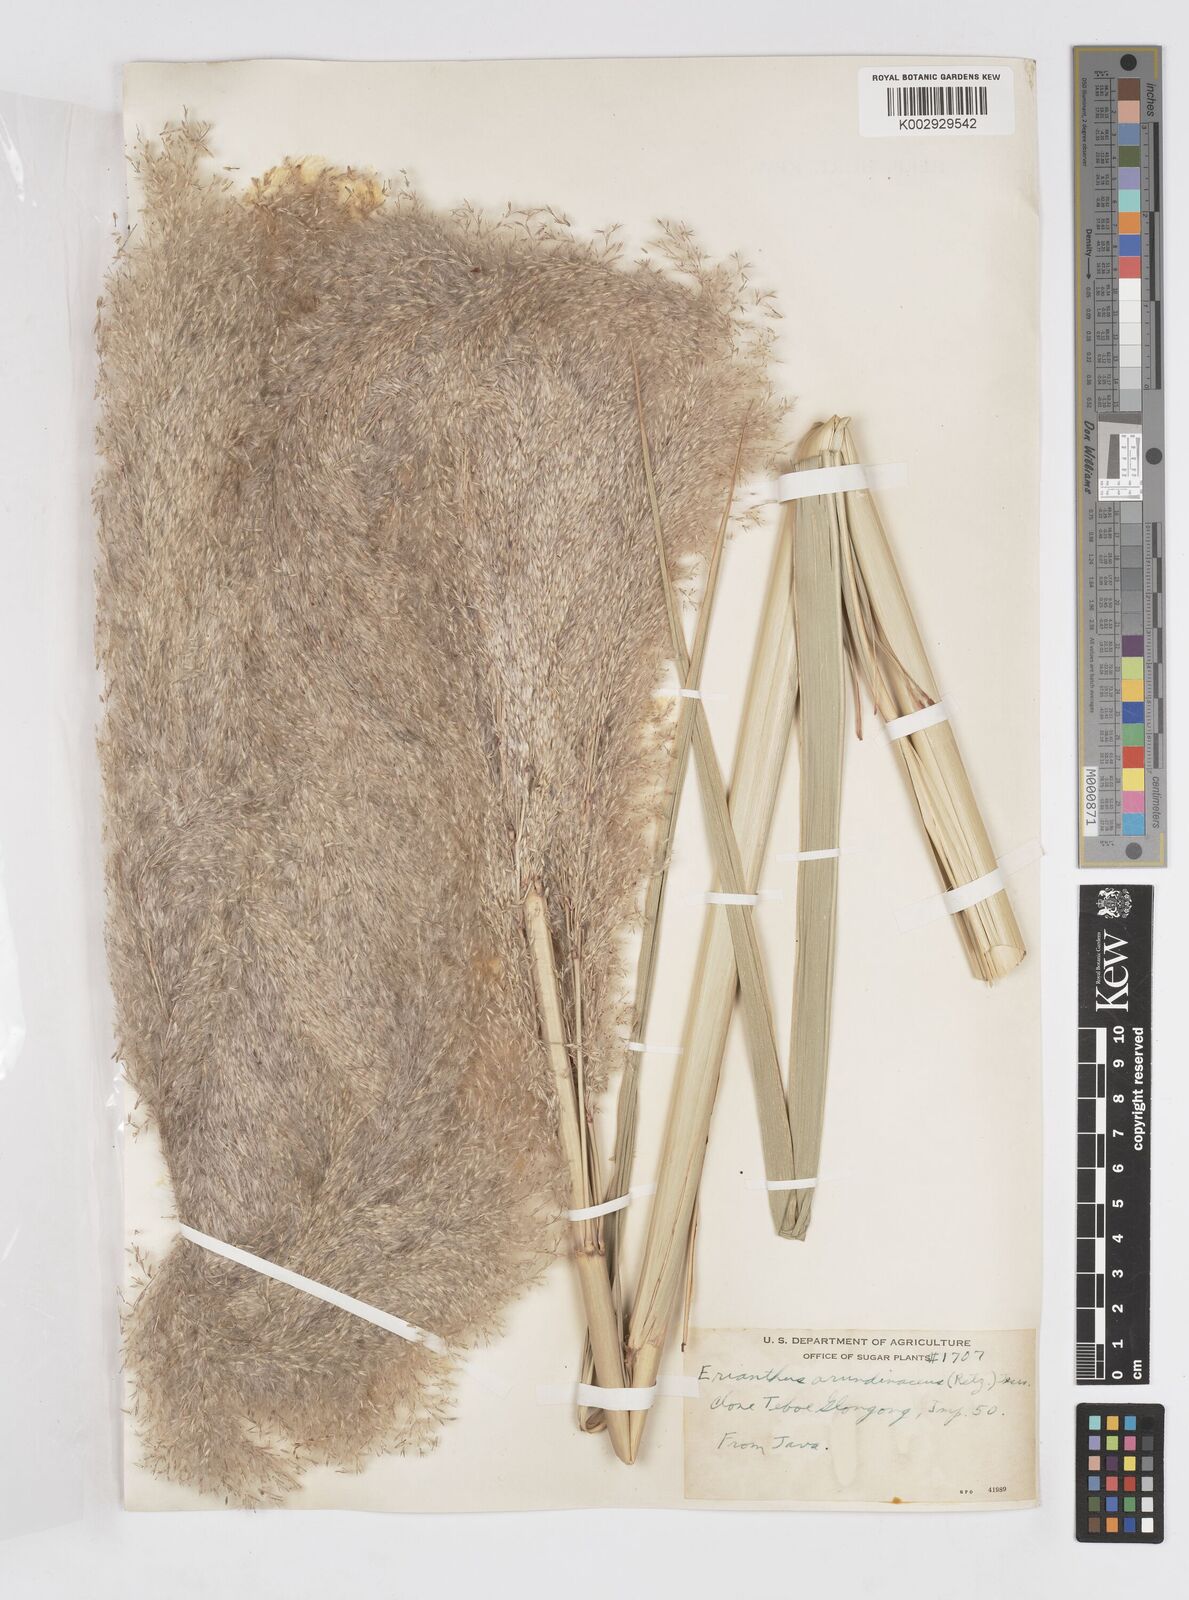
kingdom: Plantae
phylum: Tracheophyta
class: Liliopsida
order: Poales
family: Poaceae
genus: Tripidium
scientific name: Tripidium arundinaceum
